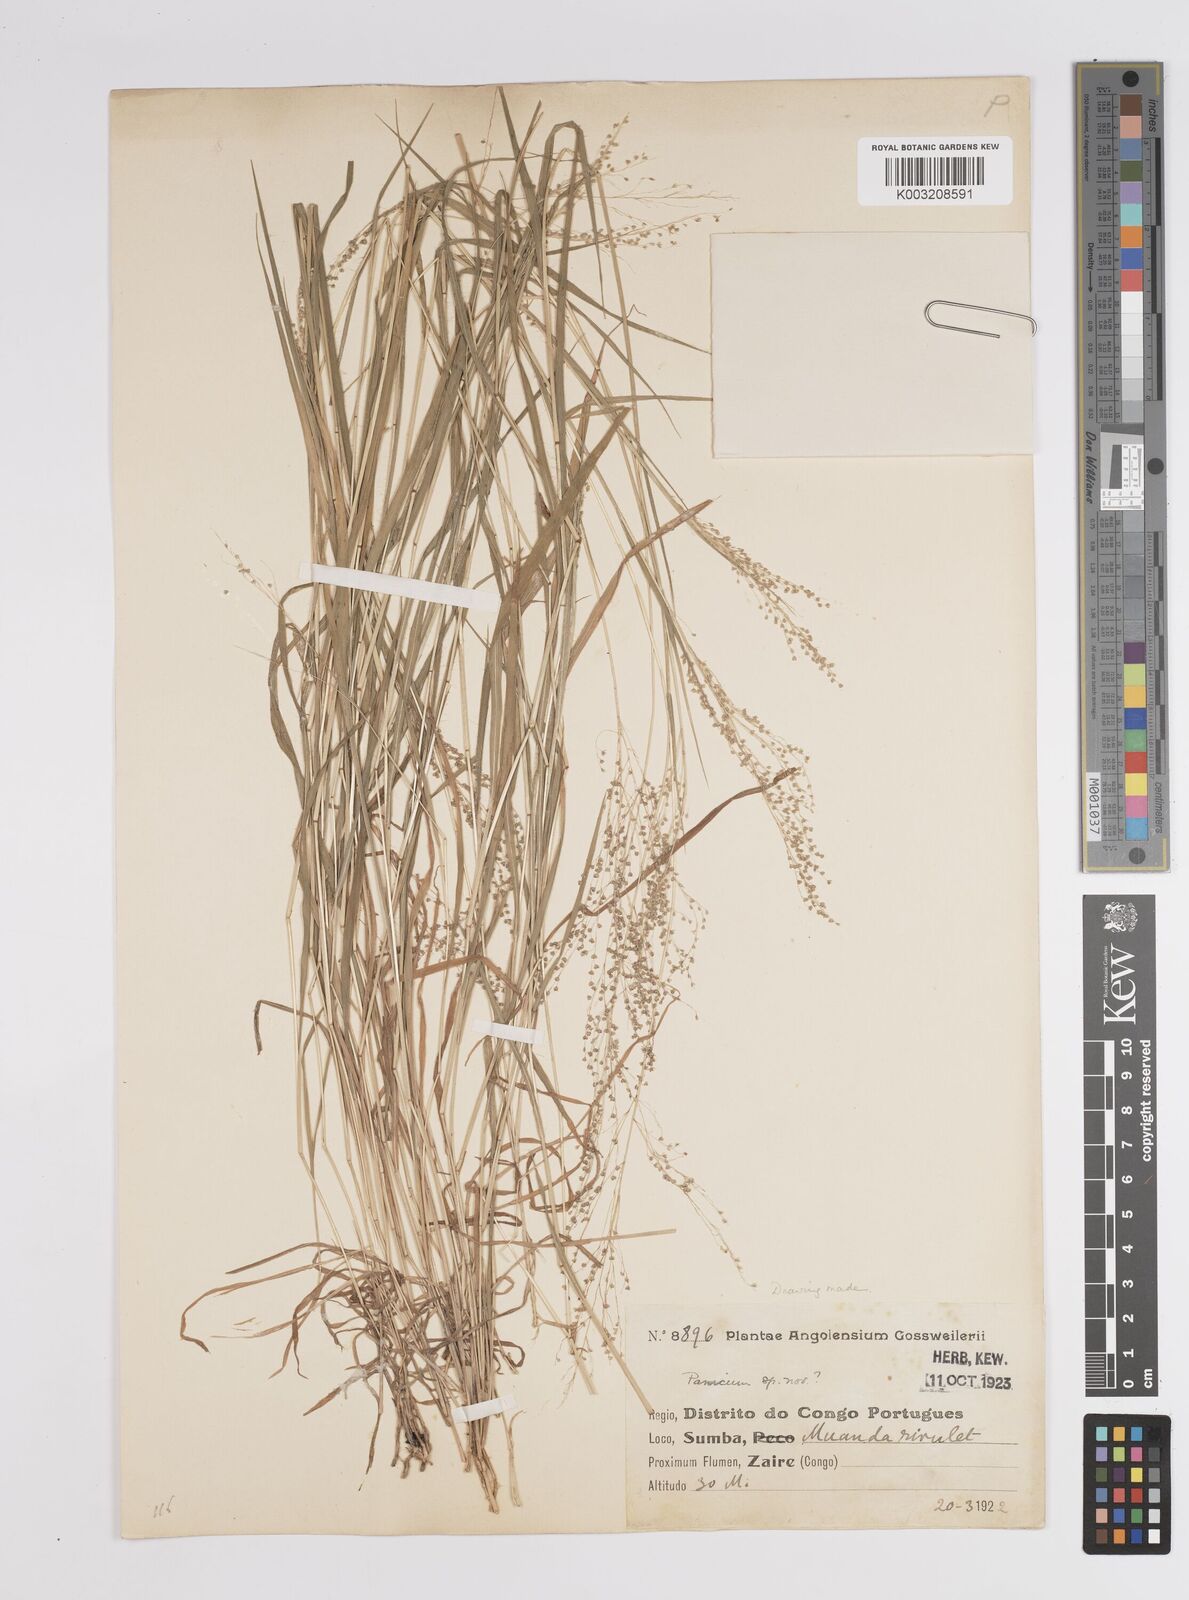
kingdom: Plantae
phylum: Tracheophyta
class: Liliopsida
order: Poales
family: Poaceae
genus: Trichanthecium
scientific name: Trichanthecium nervatum
